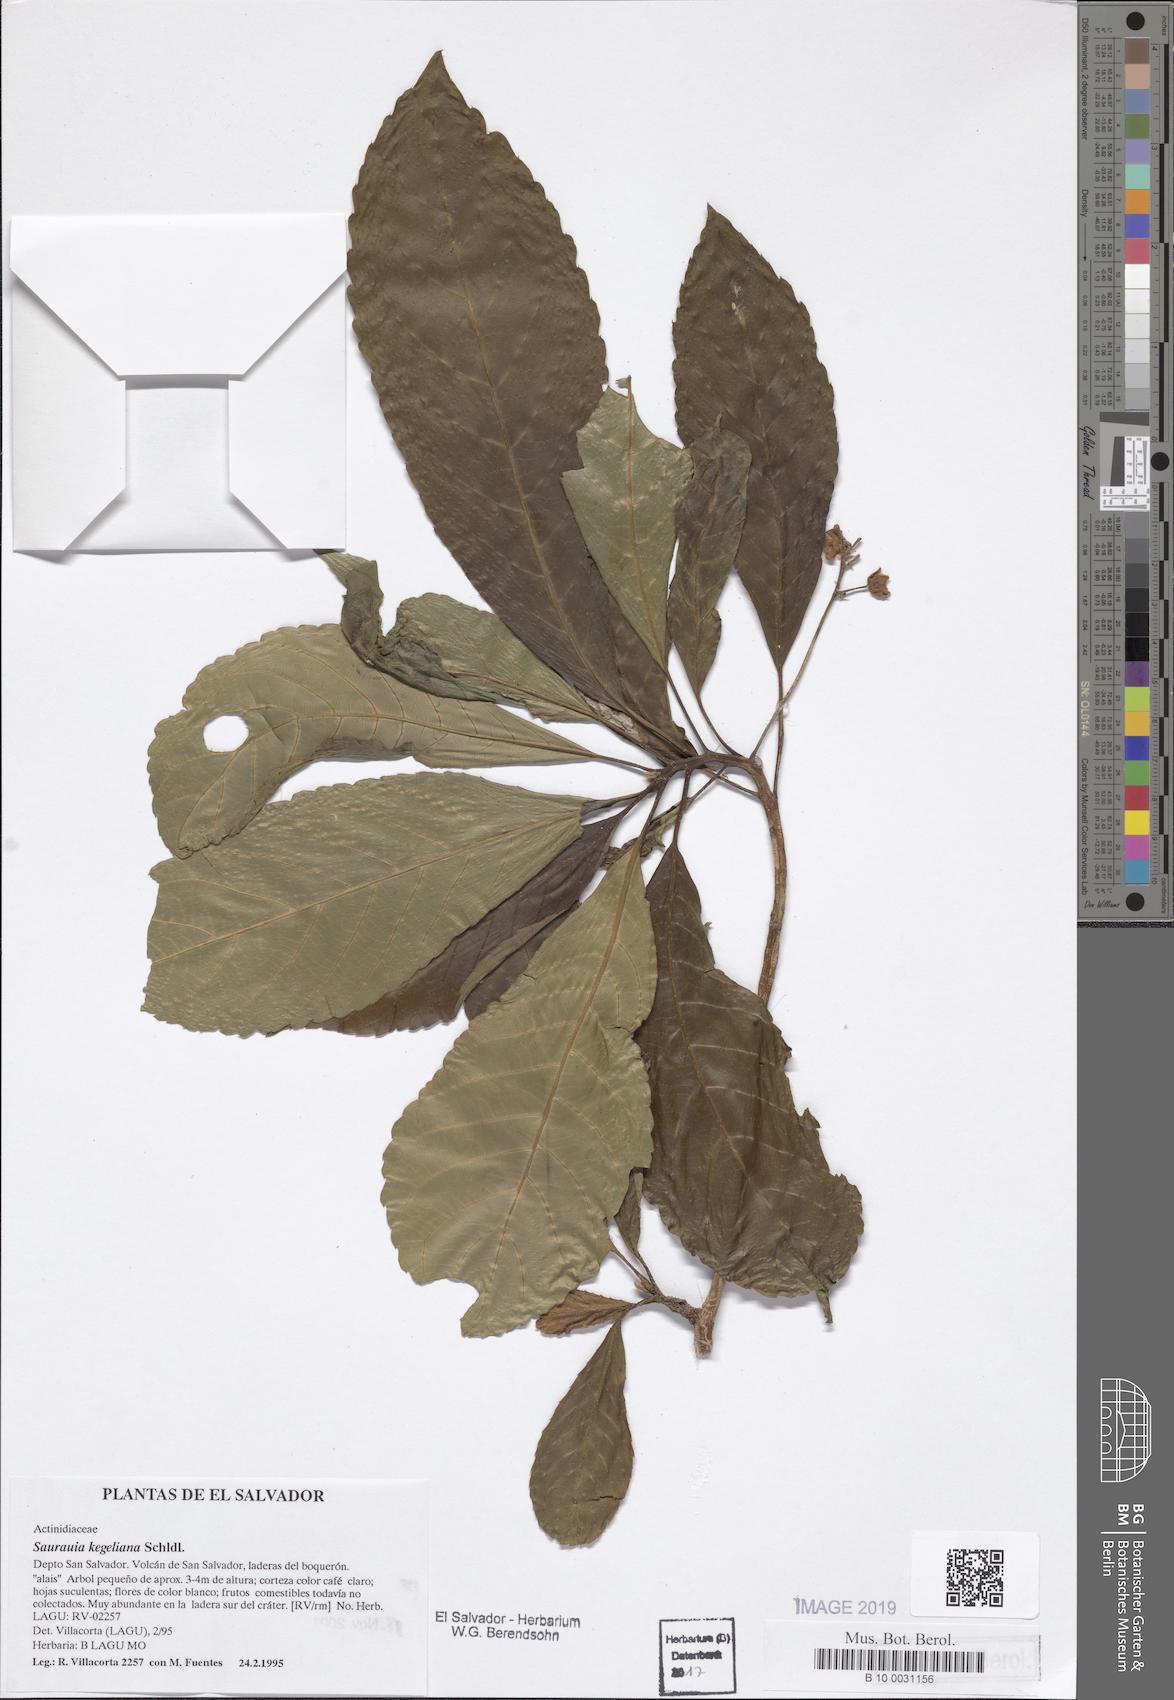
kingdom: Plantae
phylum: Tracheophyta
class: Magnoliopsida
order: Ericales
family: Actinidiaceae
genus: Saurauia
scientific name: Saurauia kegeliana
